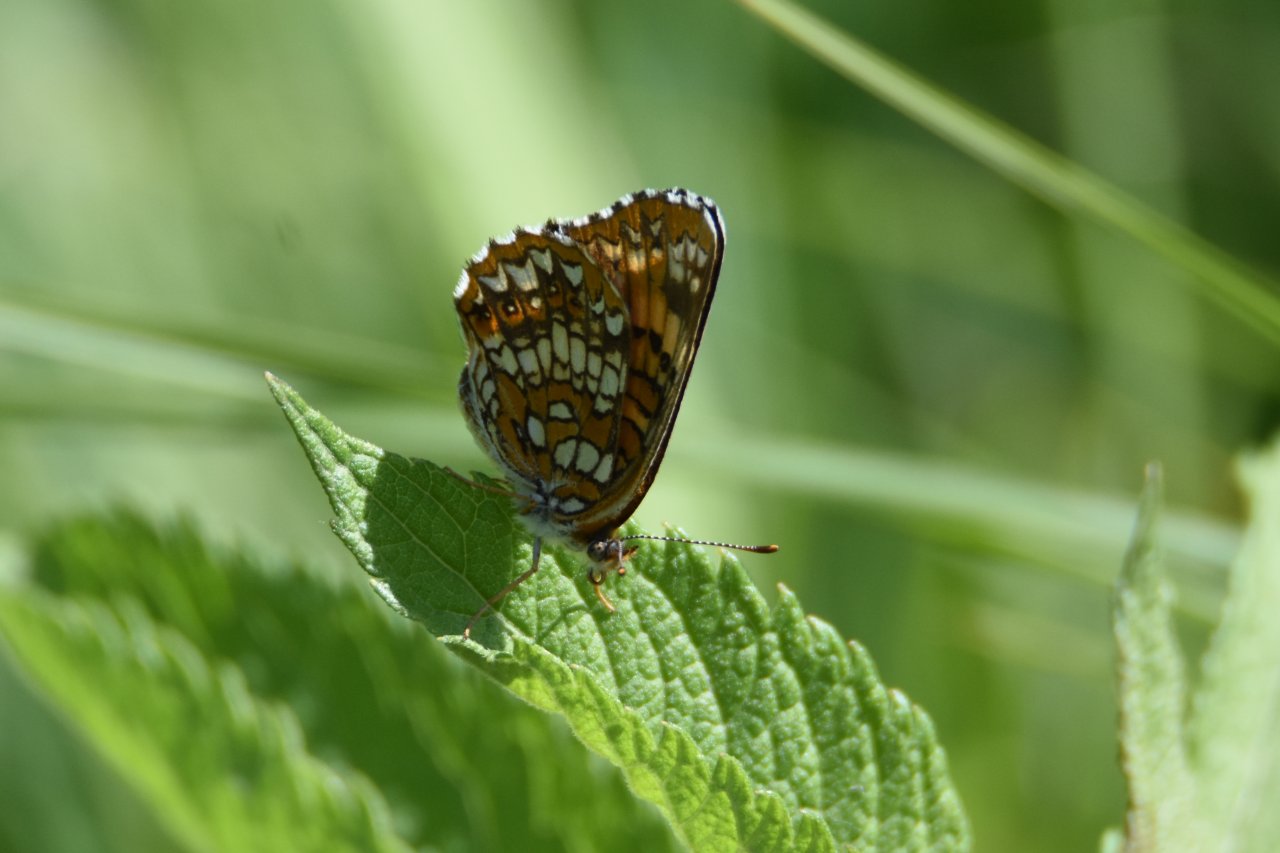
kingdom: Animalia
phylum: Arthropoda
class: Insecta
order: Lepidoptera
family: Nymphalidae
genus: Chlosyne
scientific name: Chlosyne harrisii
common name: Harris's Checkerspot
